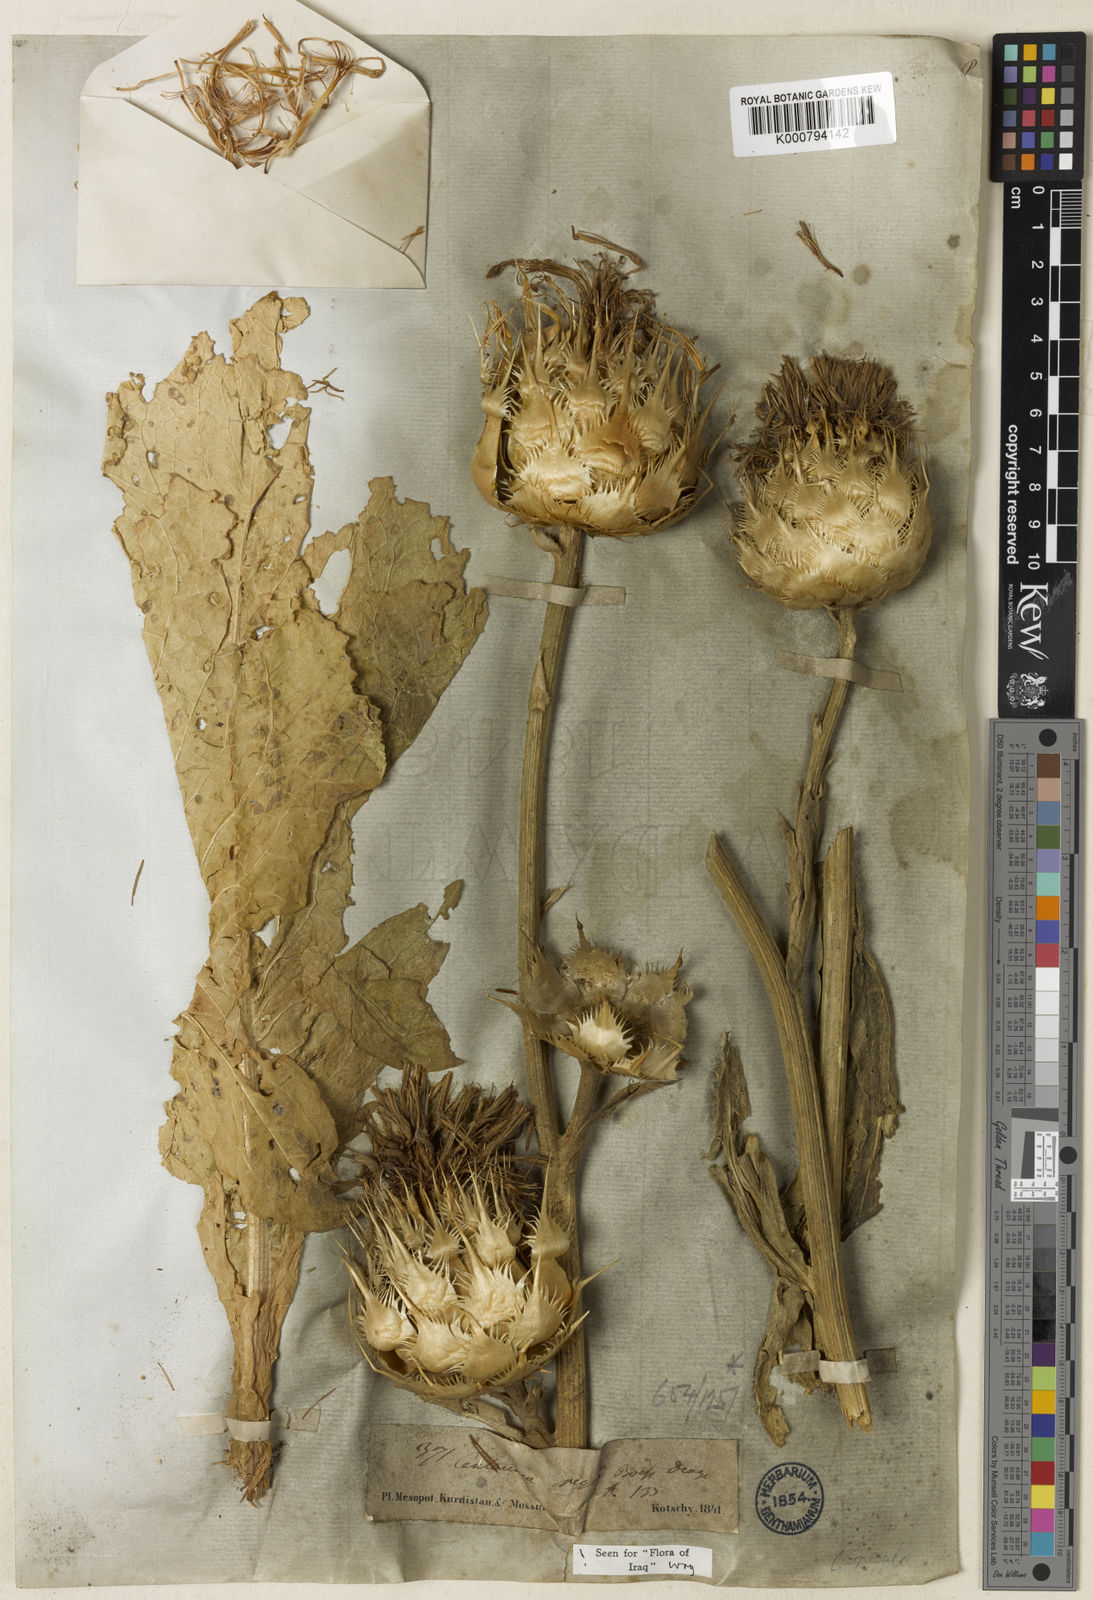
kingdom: Plantae
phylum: Tracheophyta
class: Magnoliopsida
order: Asterales
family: Asteraceae
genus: Centaurea
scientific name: Centaurea regia
